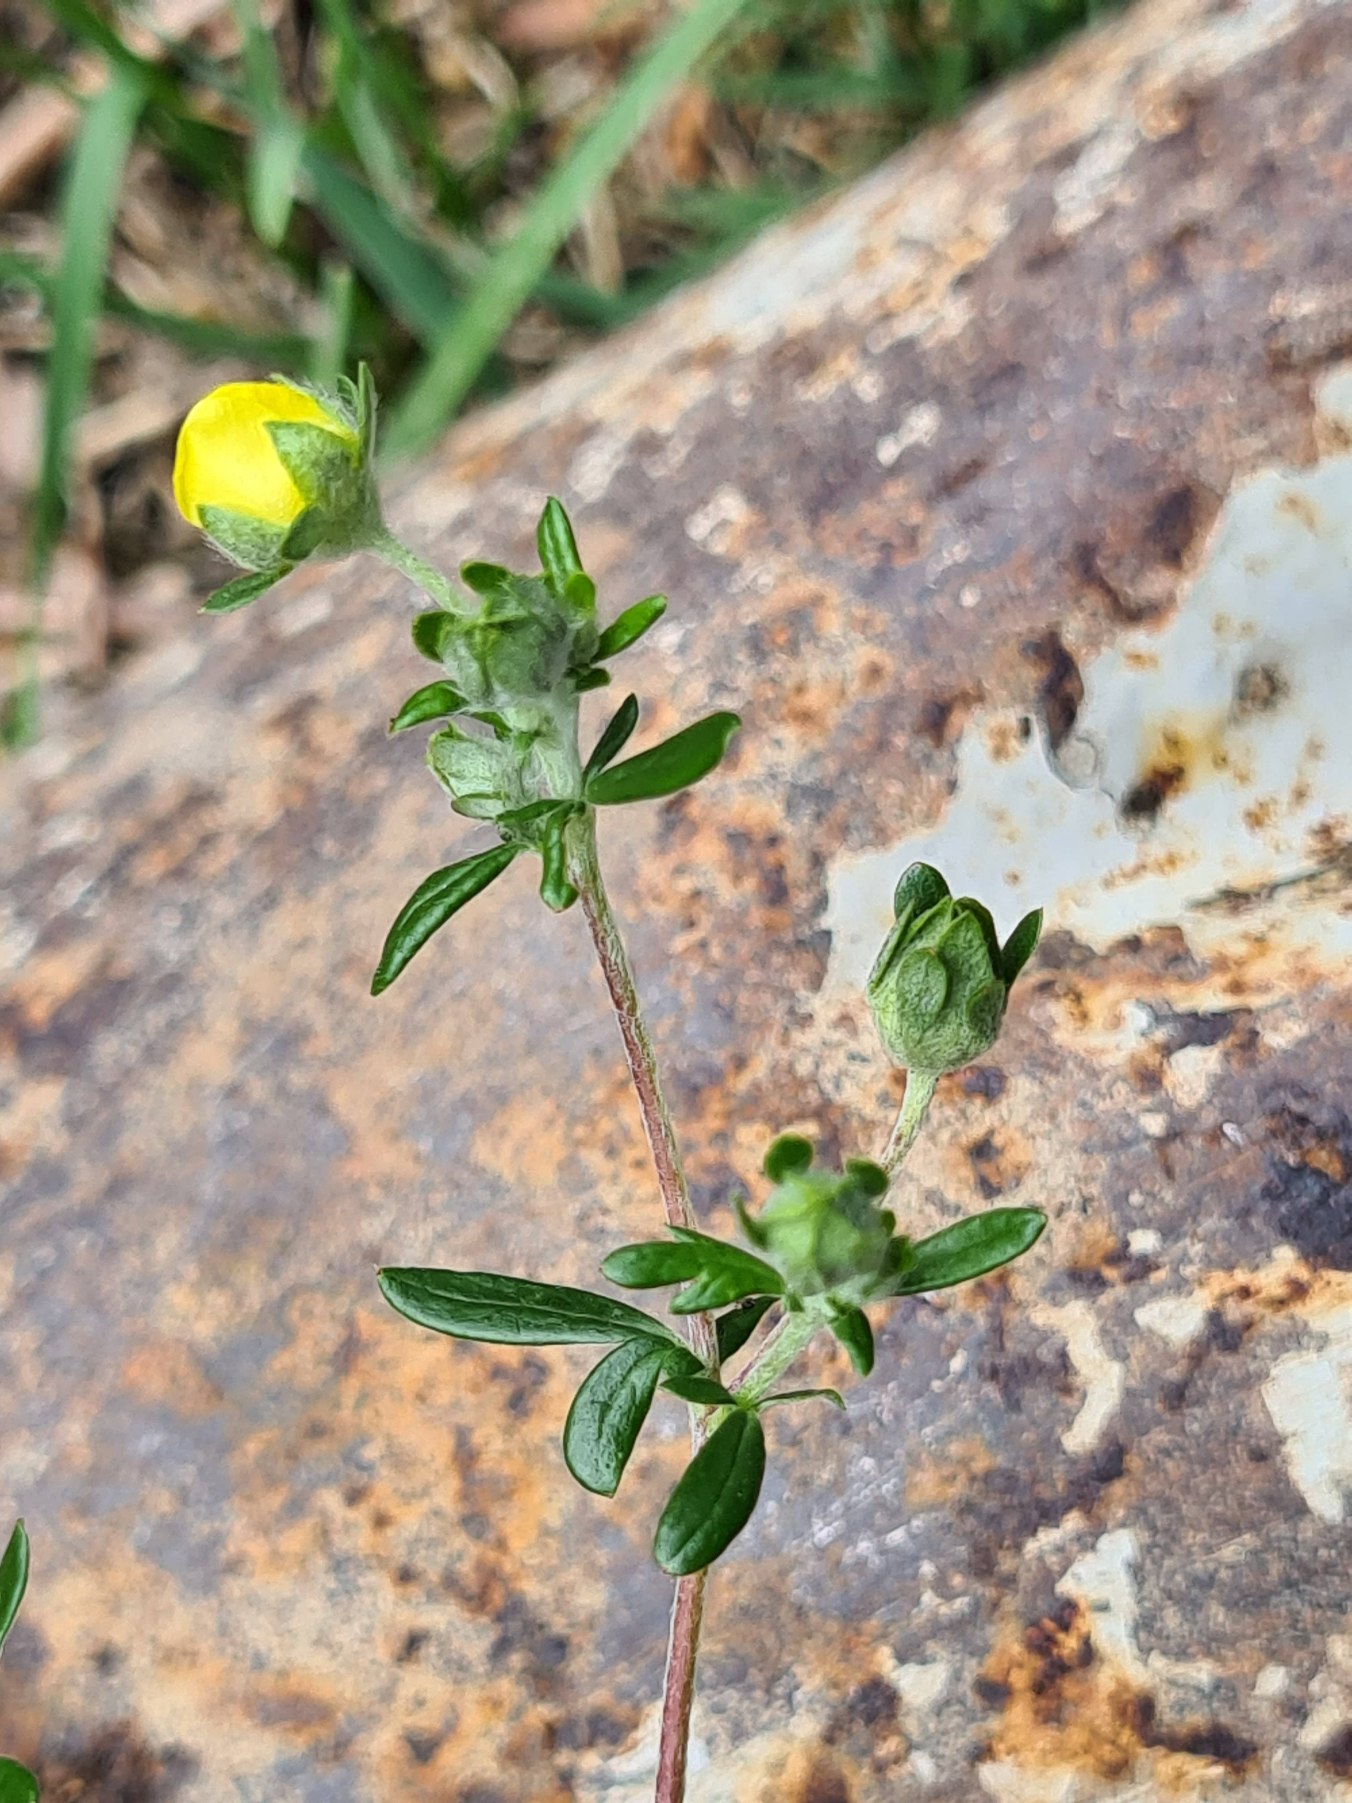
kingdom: Plantae
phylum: Tracheophyta
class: Magnoliopsida
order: Rosales
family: Rosaceae
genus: Potentilla
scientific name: Potentilla argentea
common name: Sølv-potentil
